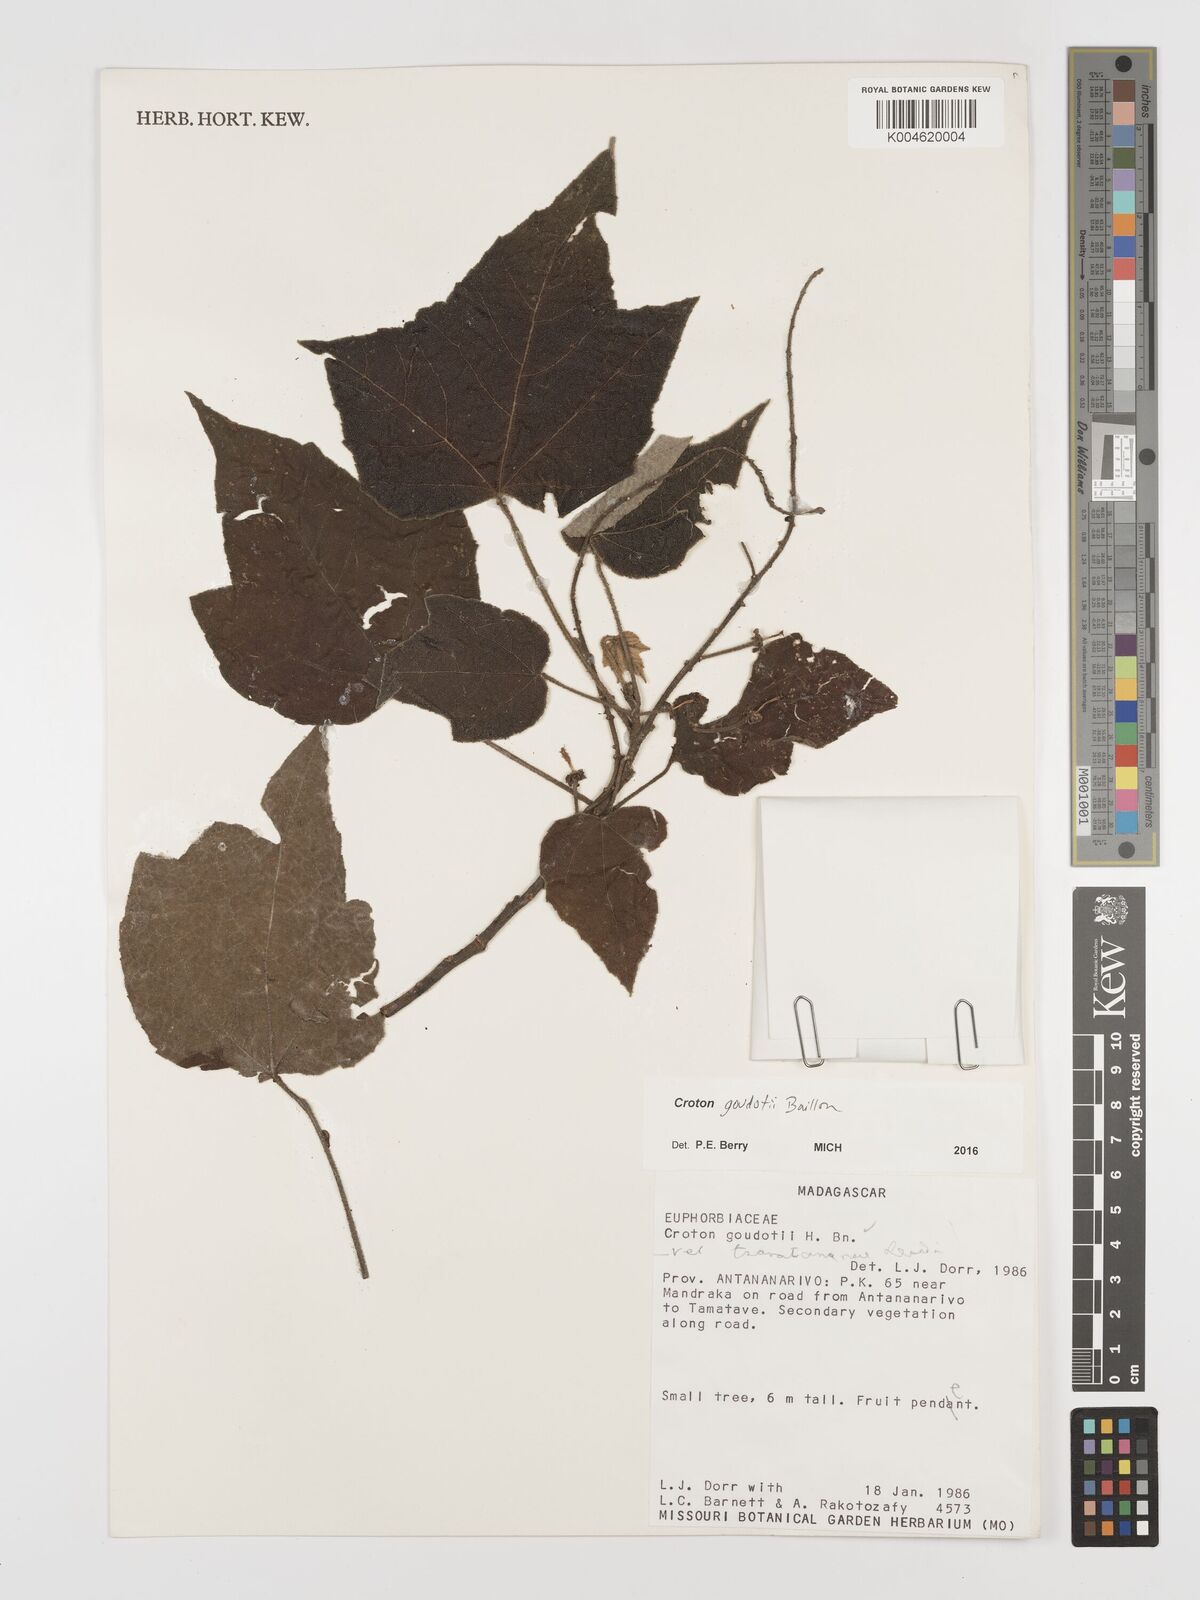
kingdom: Plantae
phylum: Tracheophyta
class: Magnoliopsida
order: Malpighiales
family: Euphorbiaceae
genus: Croton
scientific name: Croton goudotii
